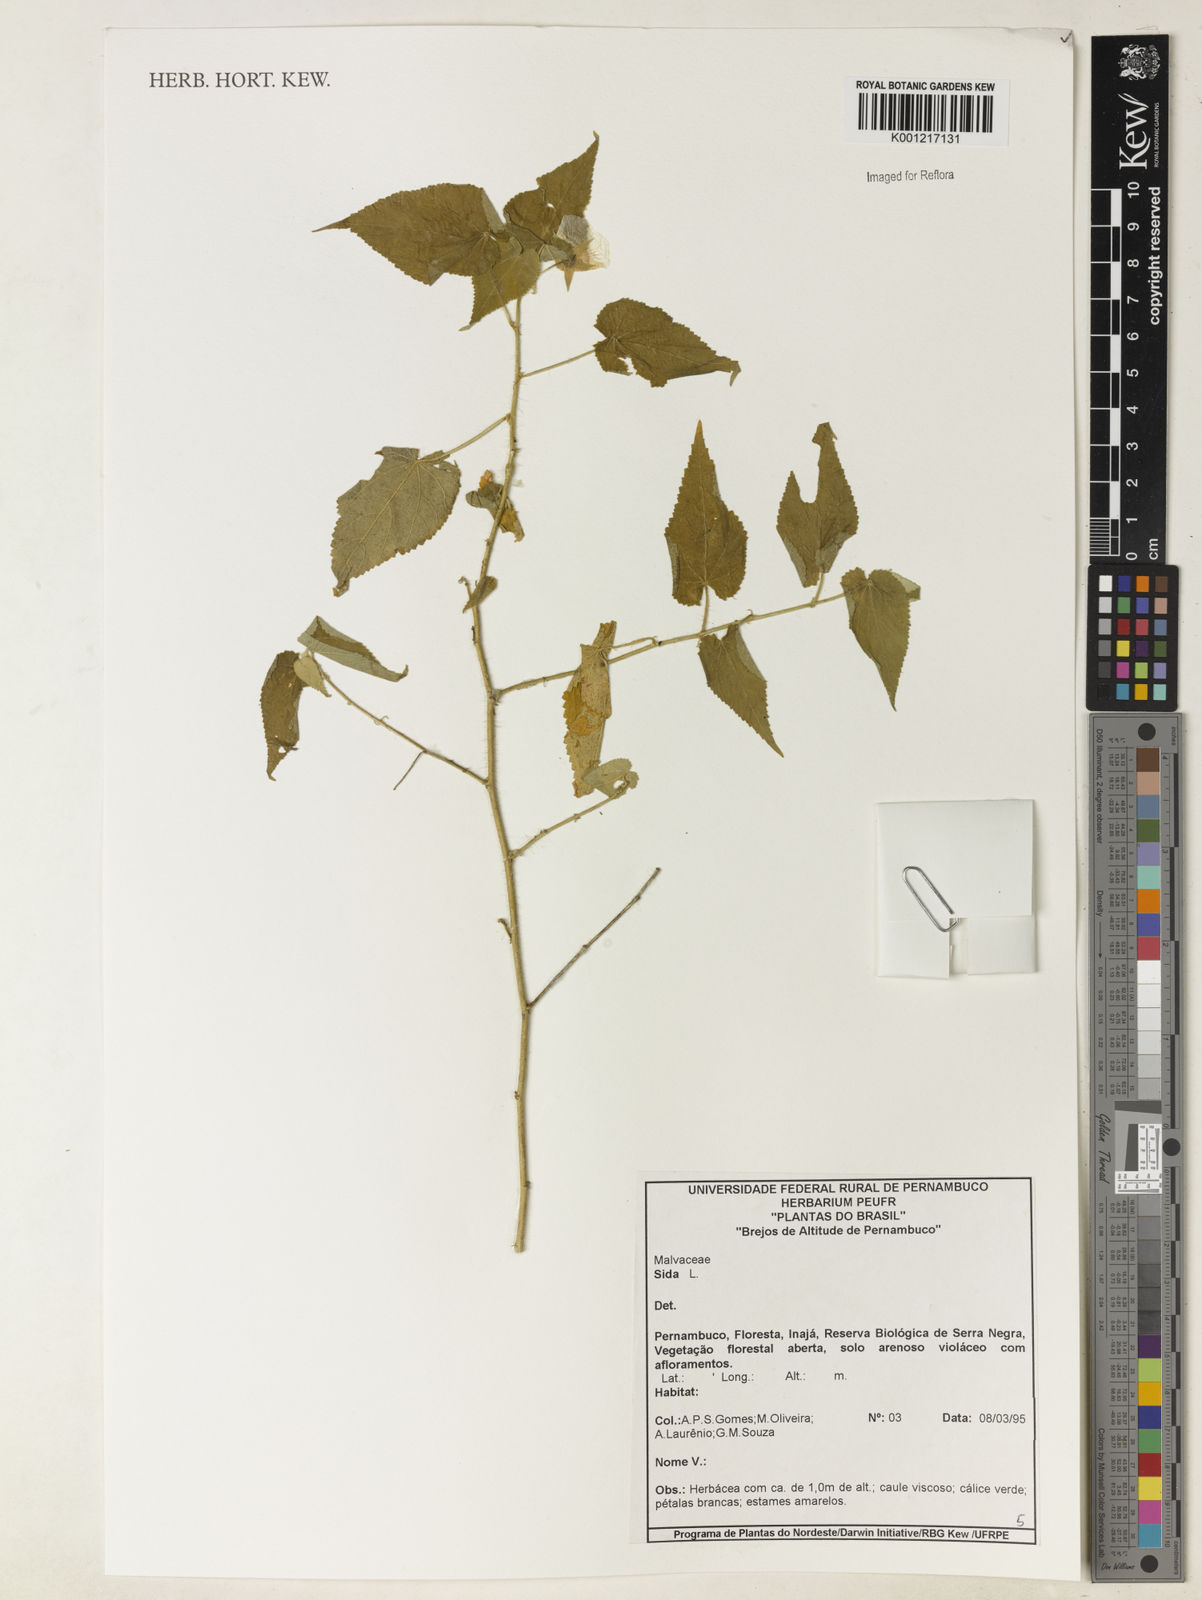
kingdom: Plantae
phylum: Tracheophyta
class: Magnoliopsida
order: Malvales
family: Malvaceae
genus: Sida
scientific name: Sida
